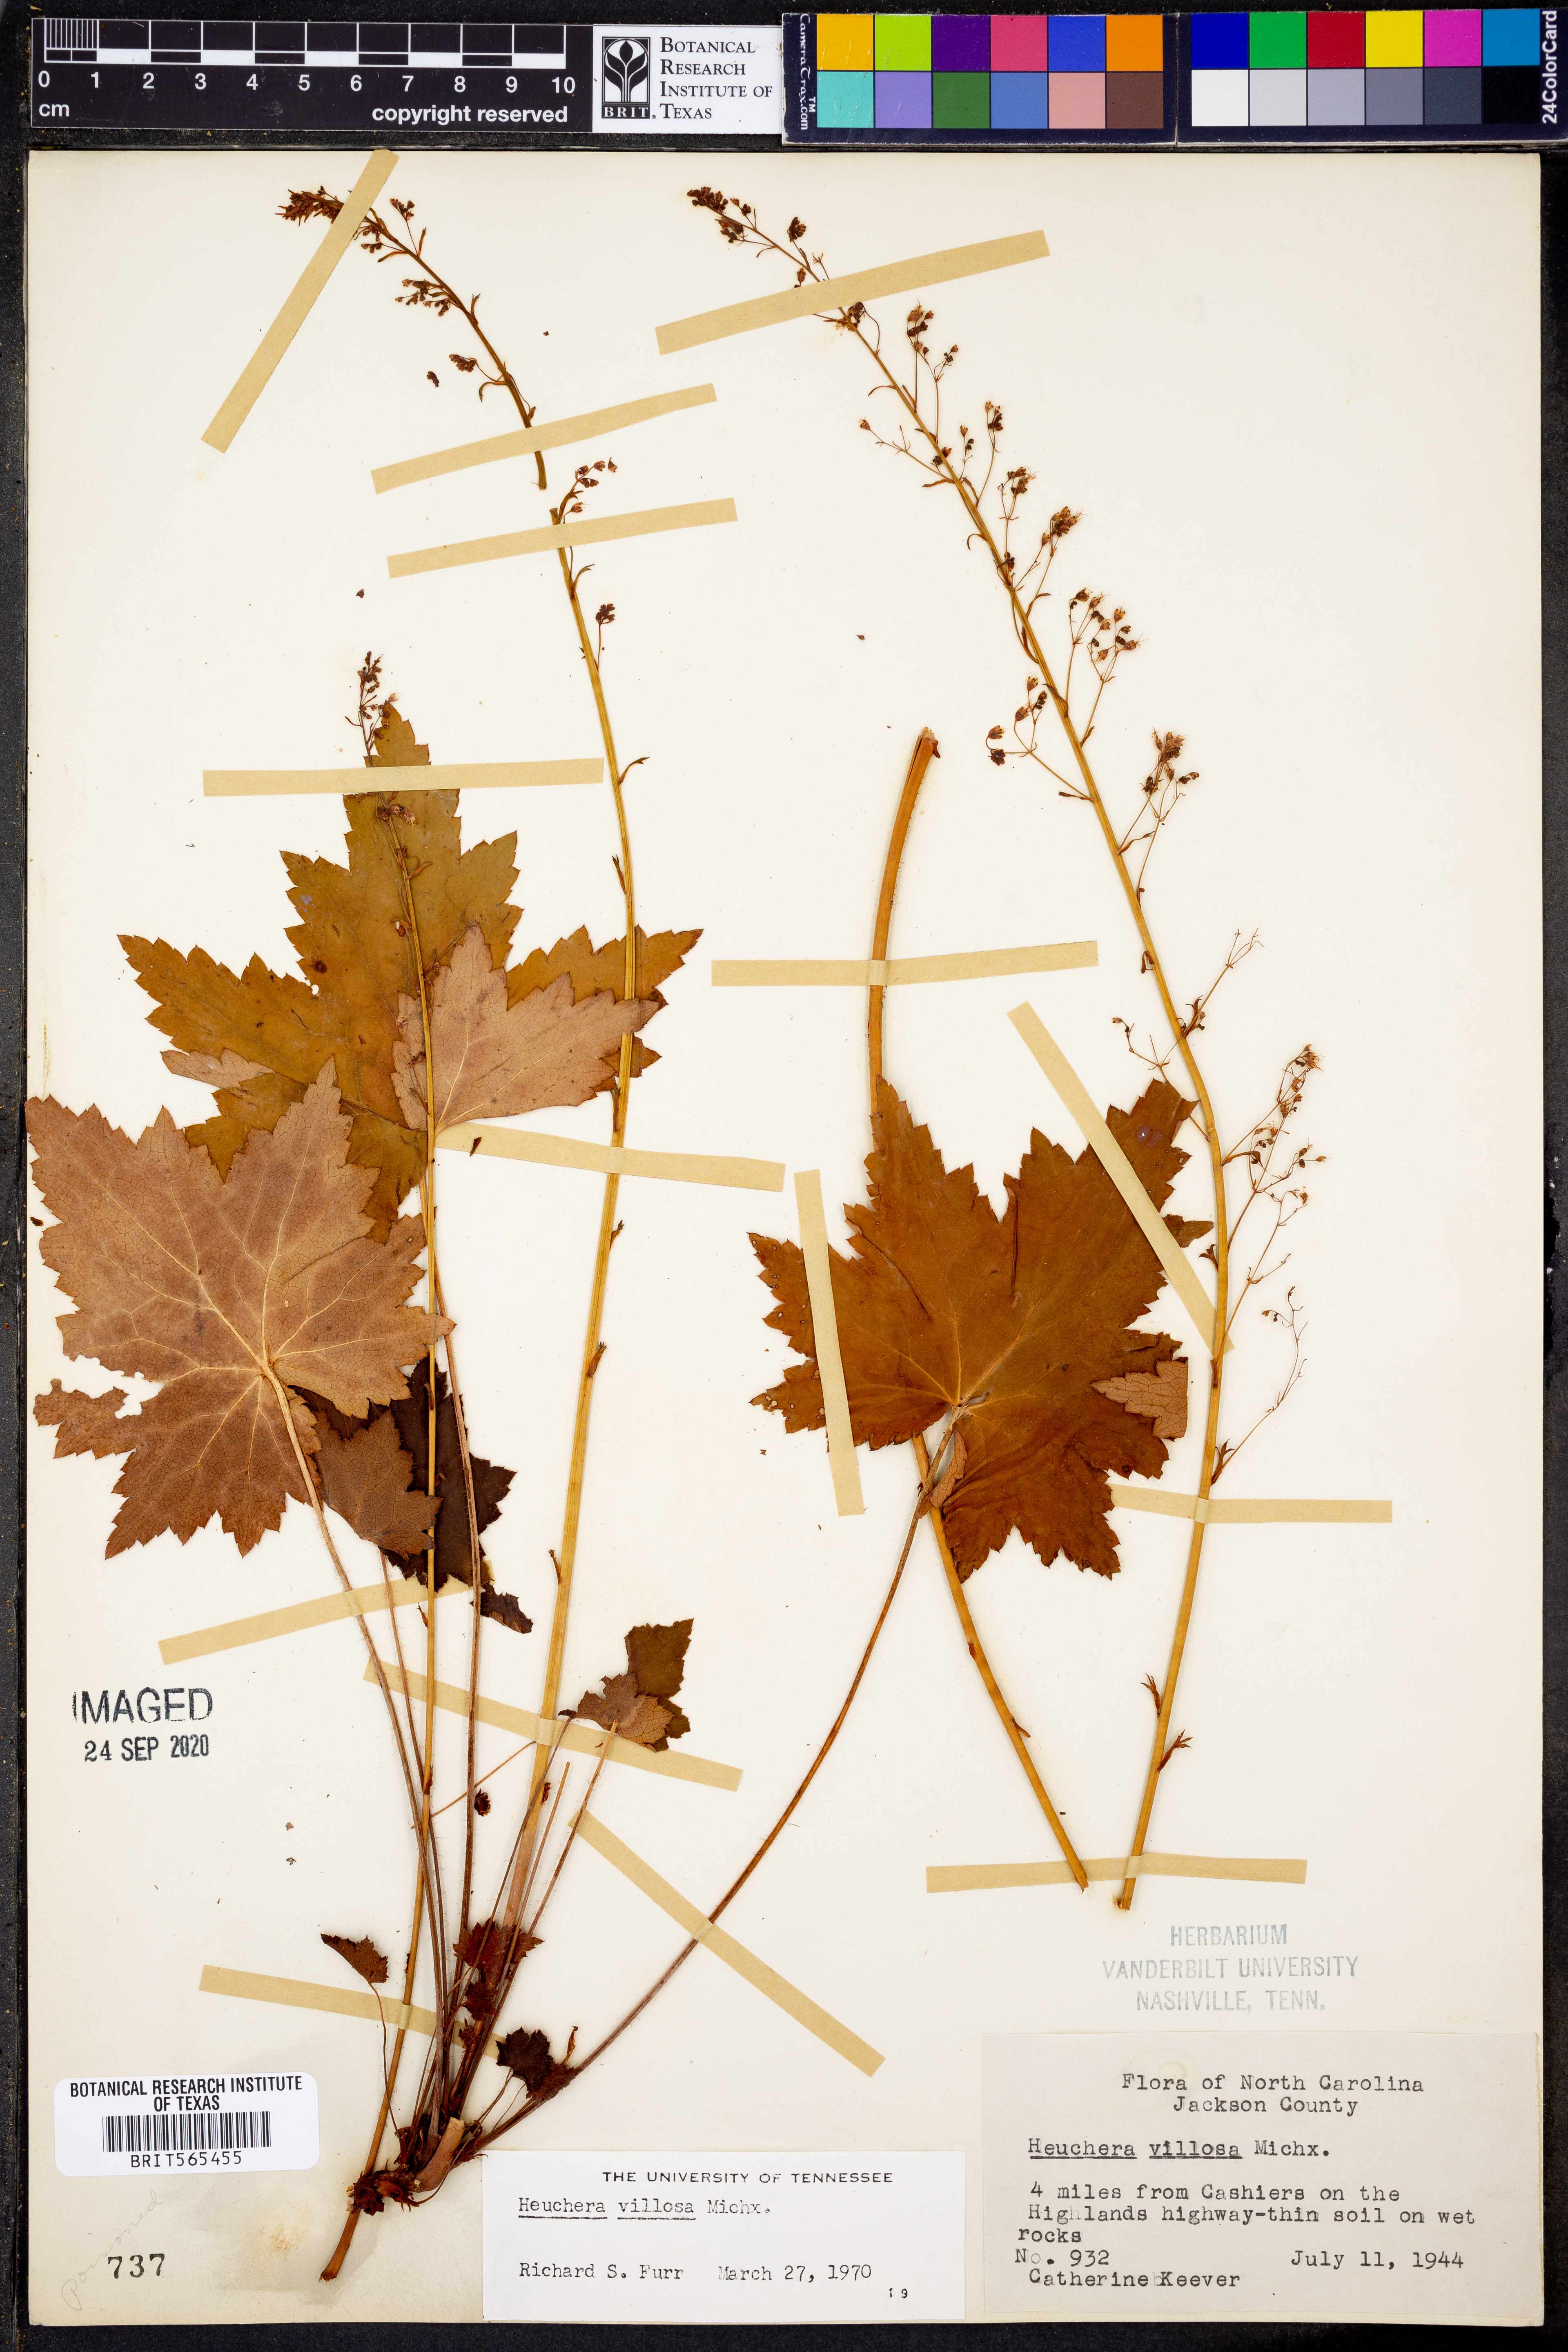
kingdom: Plantae
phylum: Tracheophyta
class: Magnoliopsida
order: Saxifragales
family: Saxifragaceae
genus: Heuchera
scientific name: Heuchera villosa
